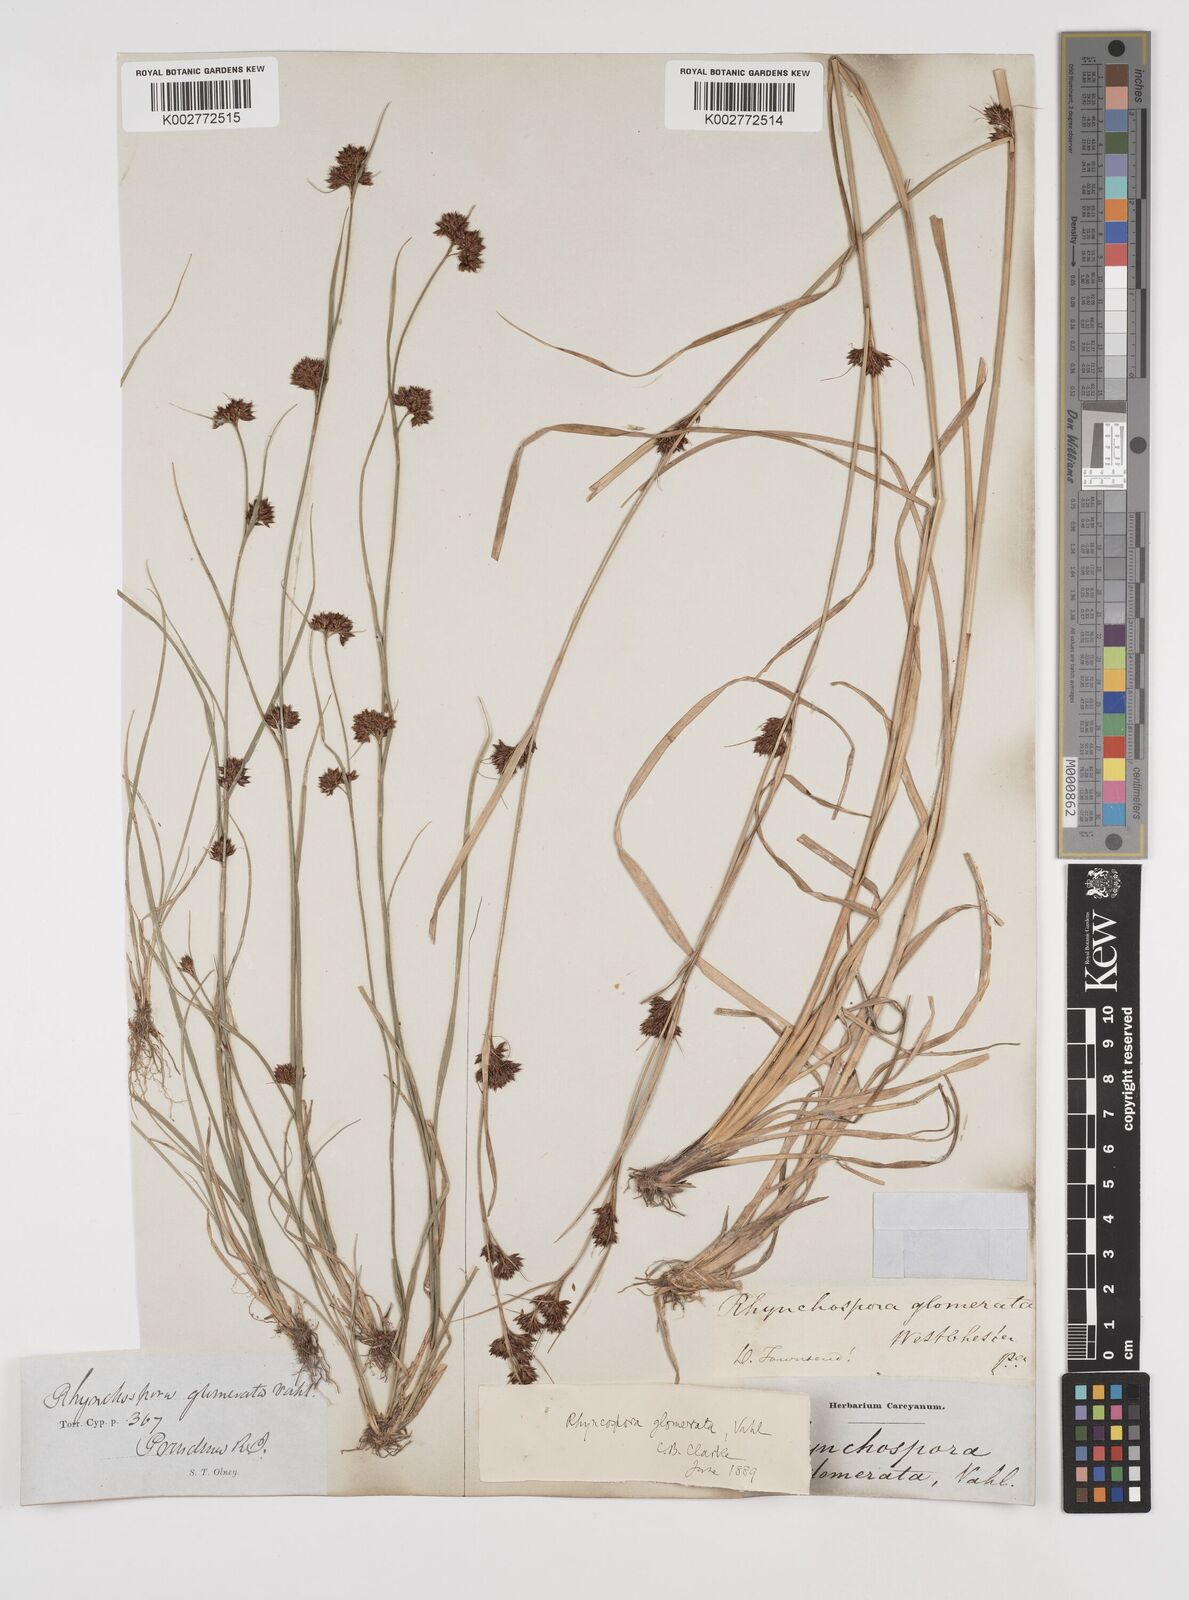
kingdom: Plantae
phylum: Tracheophyta
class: Liliopsida
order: Poales
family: Cyperaceae
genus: Rhynchospora
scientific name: Rhynchospora glomerata
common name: Cluster beak sedge
